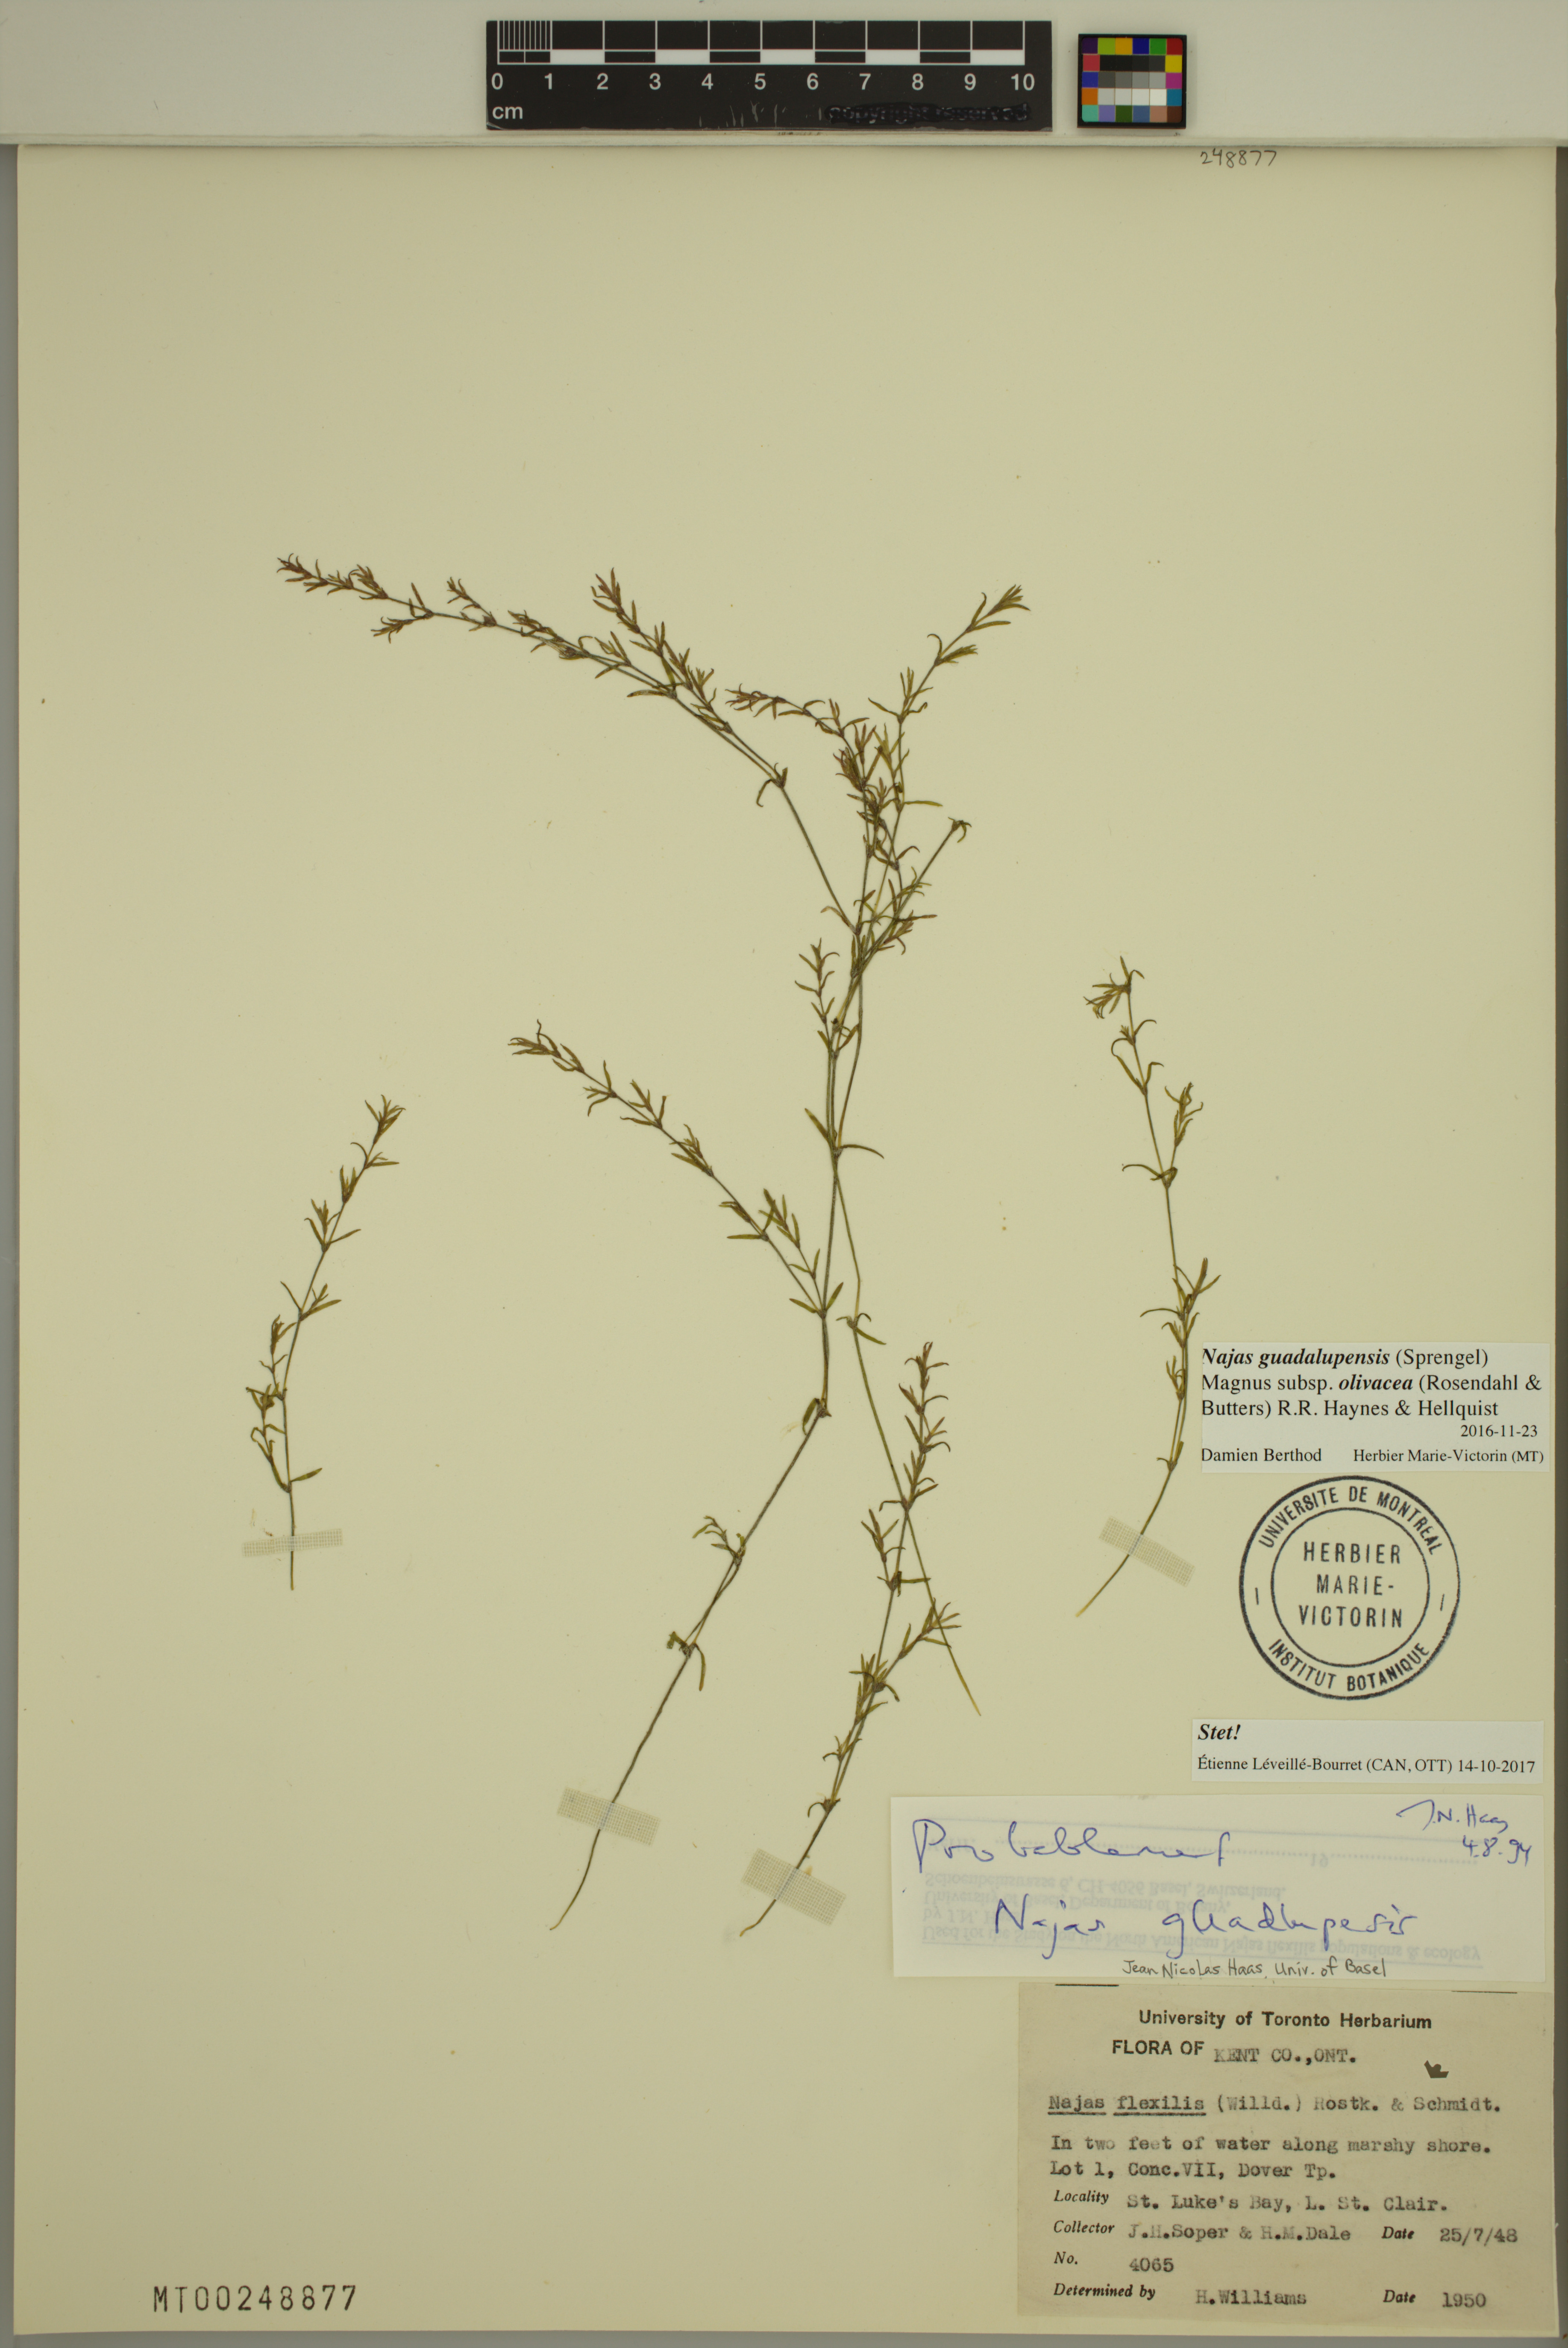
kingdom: Plantae
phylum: Tracheophyta
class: Liliopsida
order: Alismatales
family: Hydrocharitaceae
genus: Najas
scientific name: Najas guadalupensis
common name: Southern naiad
